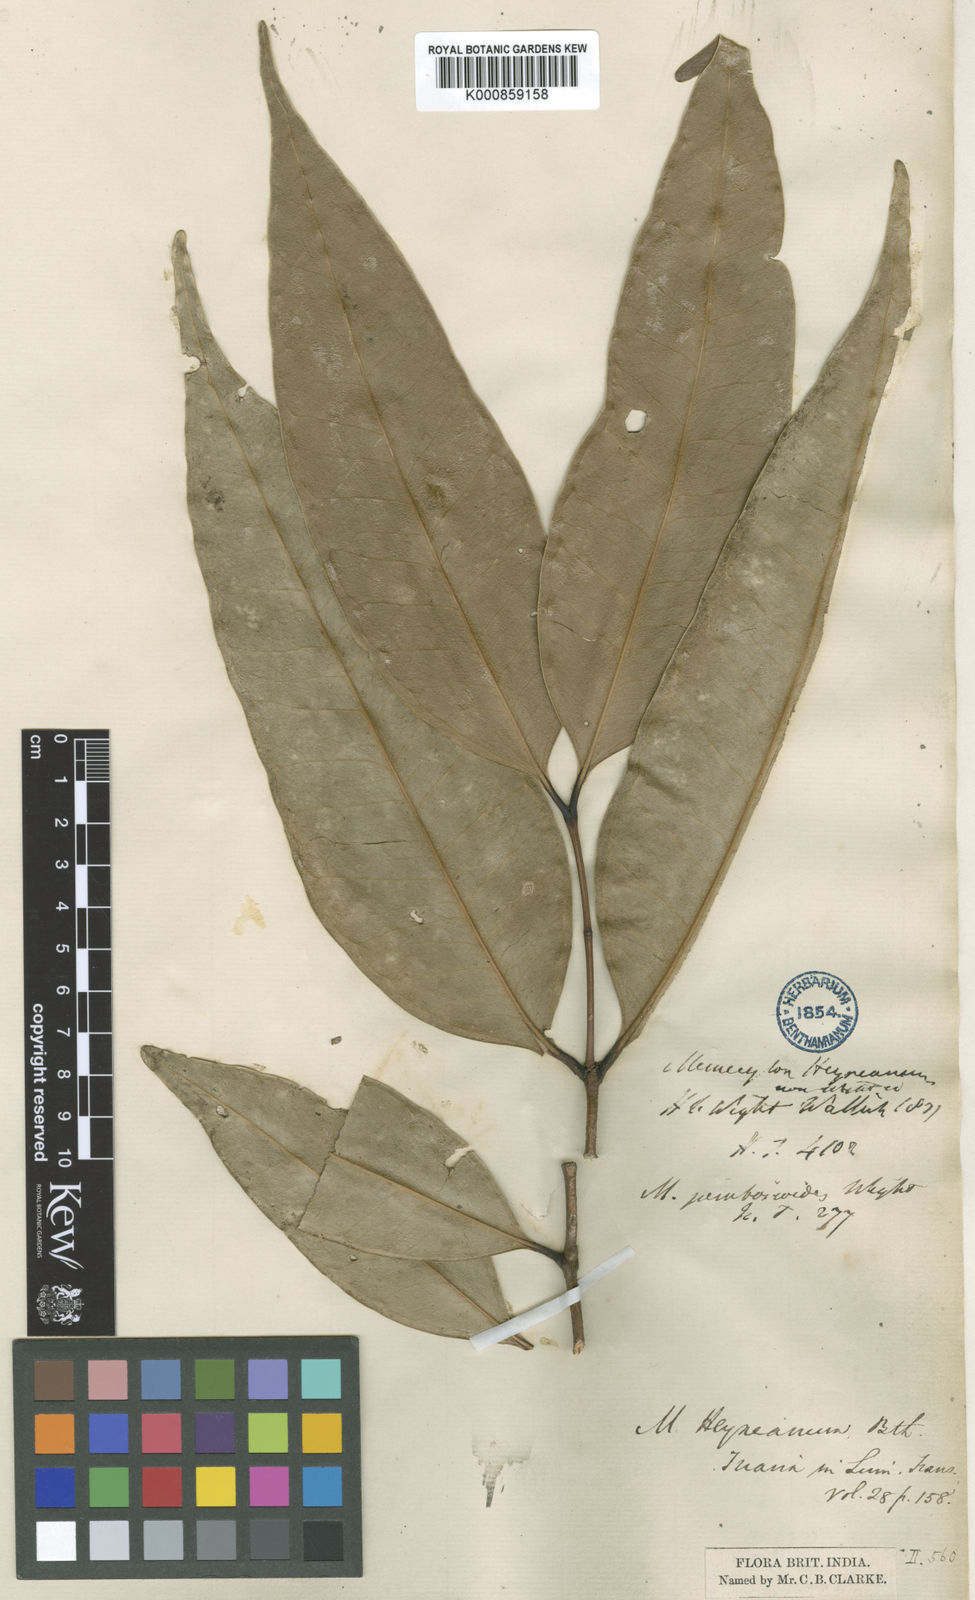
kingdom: Plantae
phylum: Tracheophyta
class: Magnoliopsida
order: Myrtales
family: Melastomataceae
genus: Memecylon
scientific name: Memecylon
